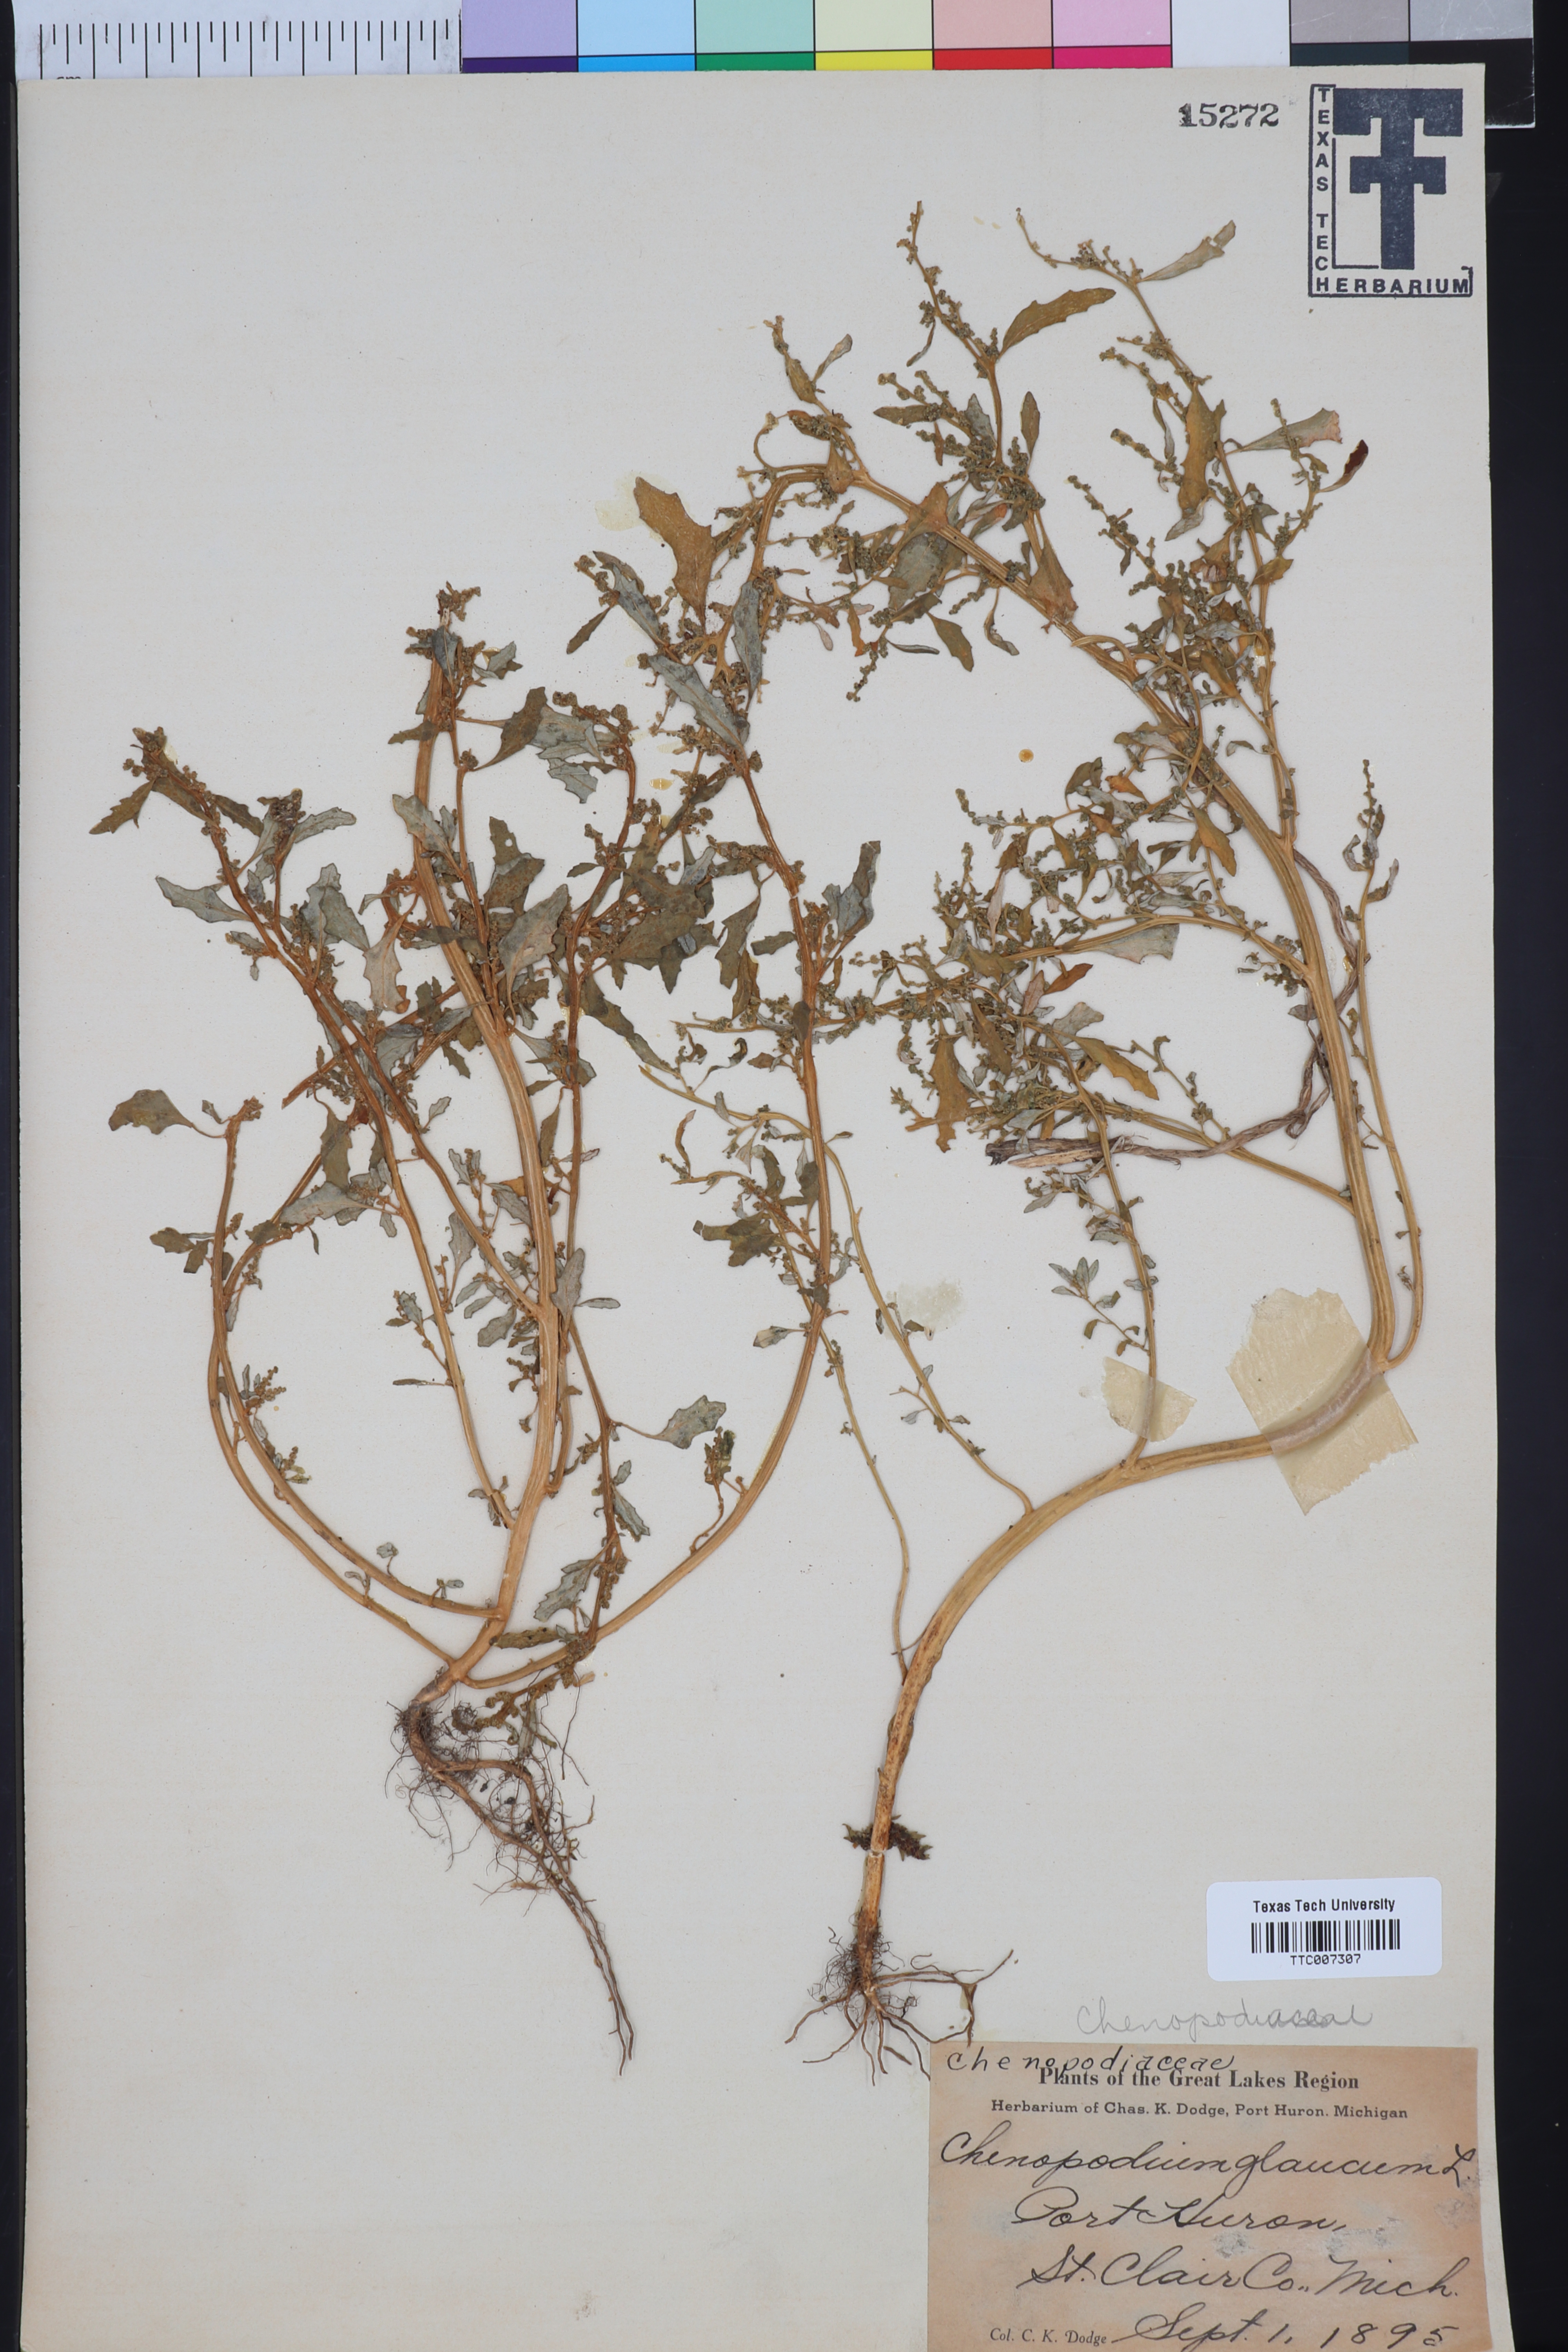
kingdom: Plantae
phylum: Tracheophyta
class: Magnoliopsida
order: Caryophyllales
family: Amaranthaceae
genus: Oxybasis
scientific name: Oxybasis glauca
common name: Glaucous goosefoot
